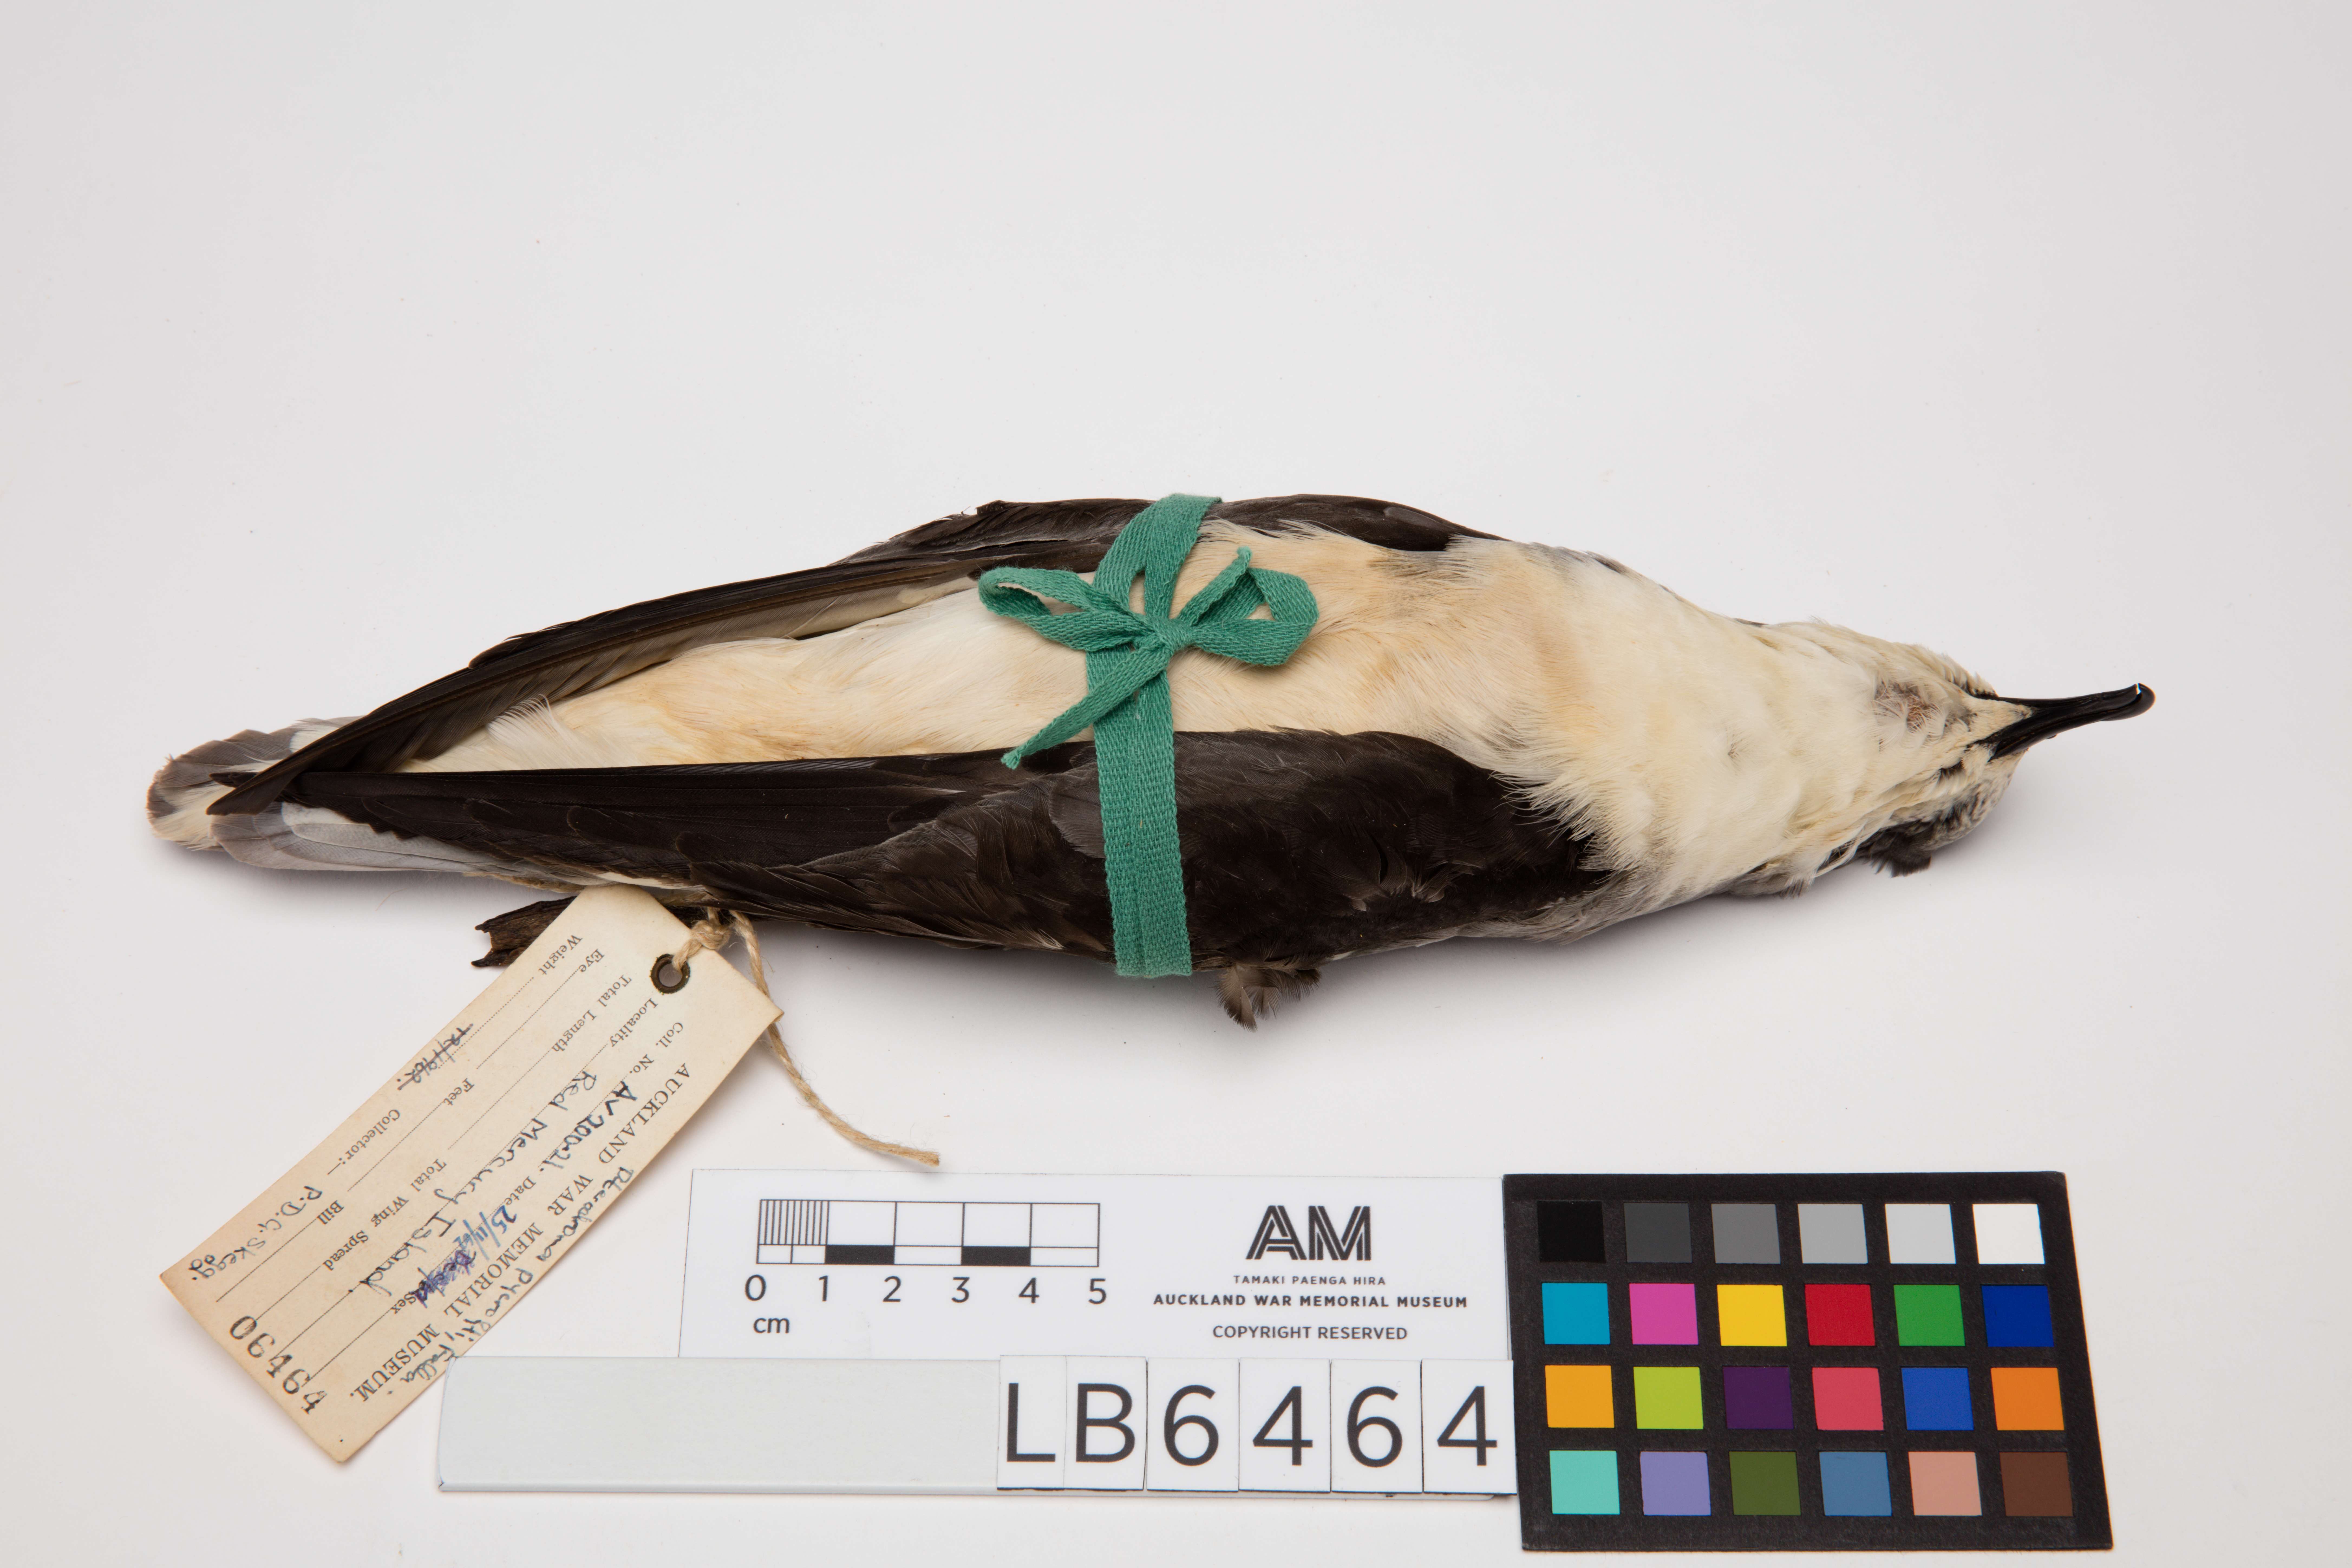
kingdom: Animalia
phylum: Chordata
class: Aves
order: Procellariiformes
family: Procellariidae
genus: Pterodroma
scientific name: Pterodroma pycrofti
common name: Pycroft's petrel
